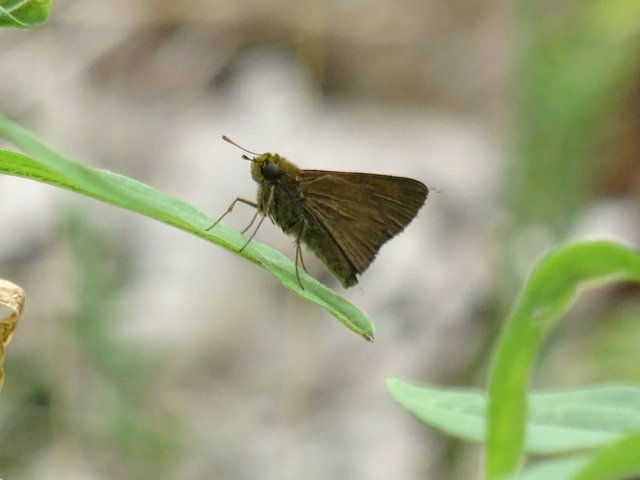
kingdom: Animalia
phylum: Arthropoda
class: Insecta
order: Lepidoptera
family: Hesperiidae
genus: Euphyes
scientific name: Euphyes vestris
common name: Dun Skipper
